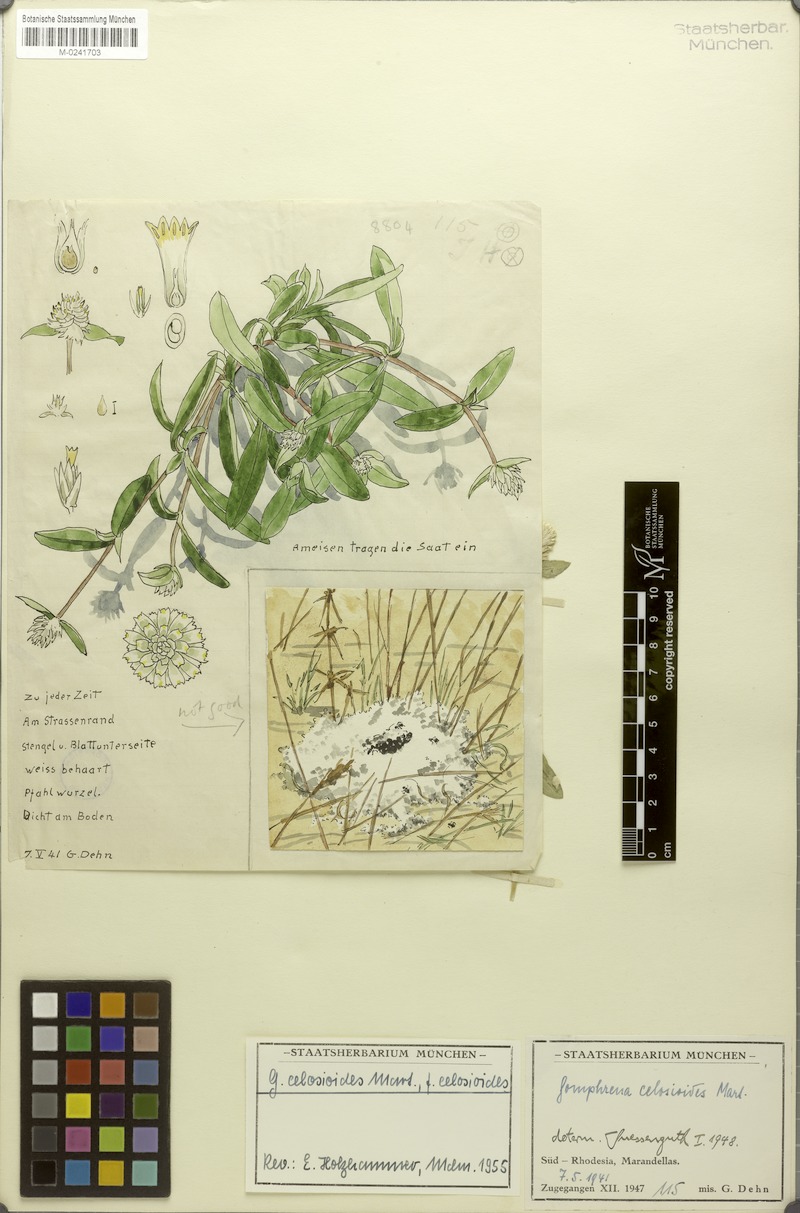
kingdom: Plantae
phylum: Tracheophyta
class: Magnoliopsida
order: Caryophyllales
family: Amaranthaceae
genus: Gomphrena
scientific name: Gomphrena celosioides
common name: Gomphrena-weed
